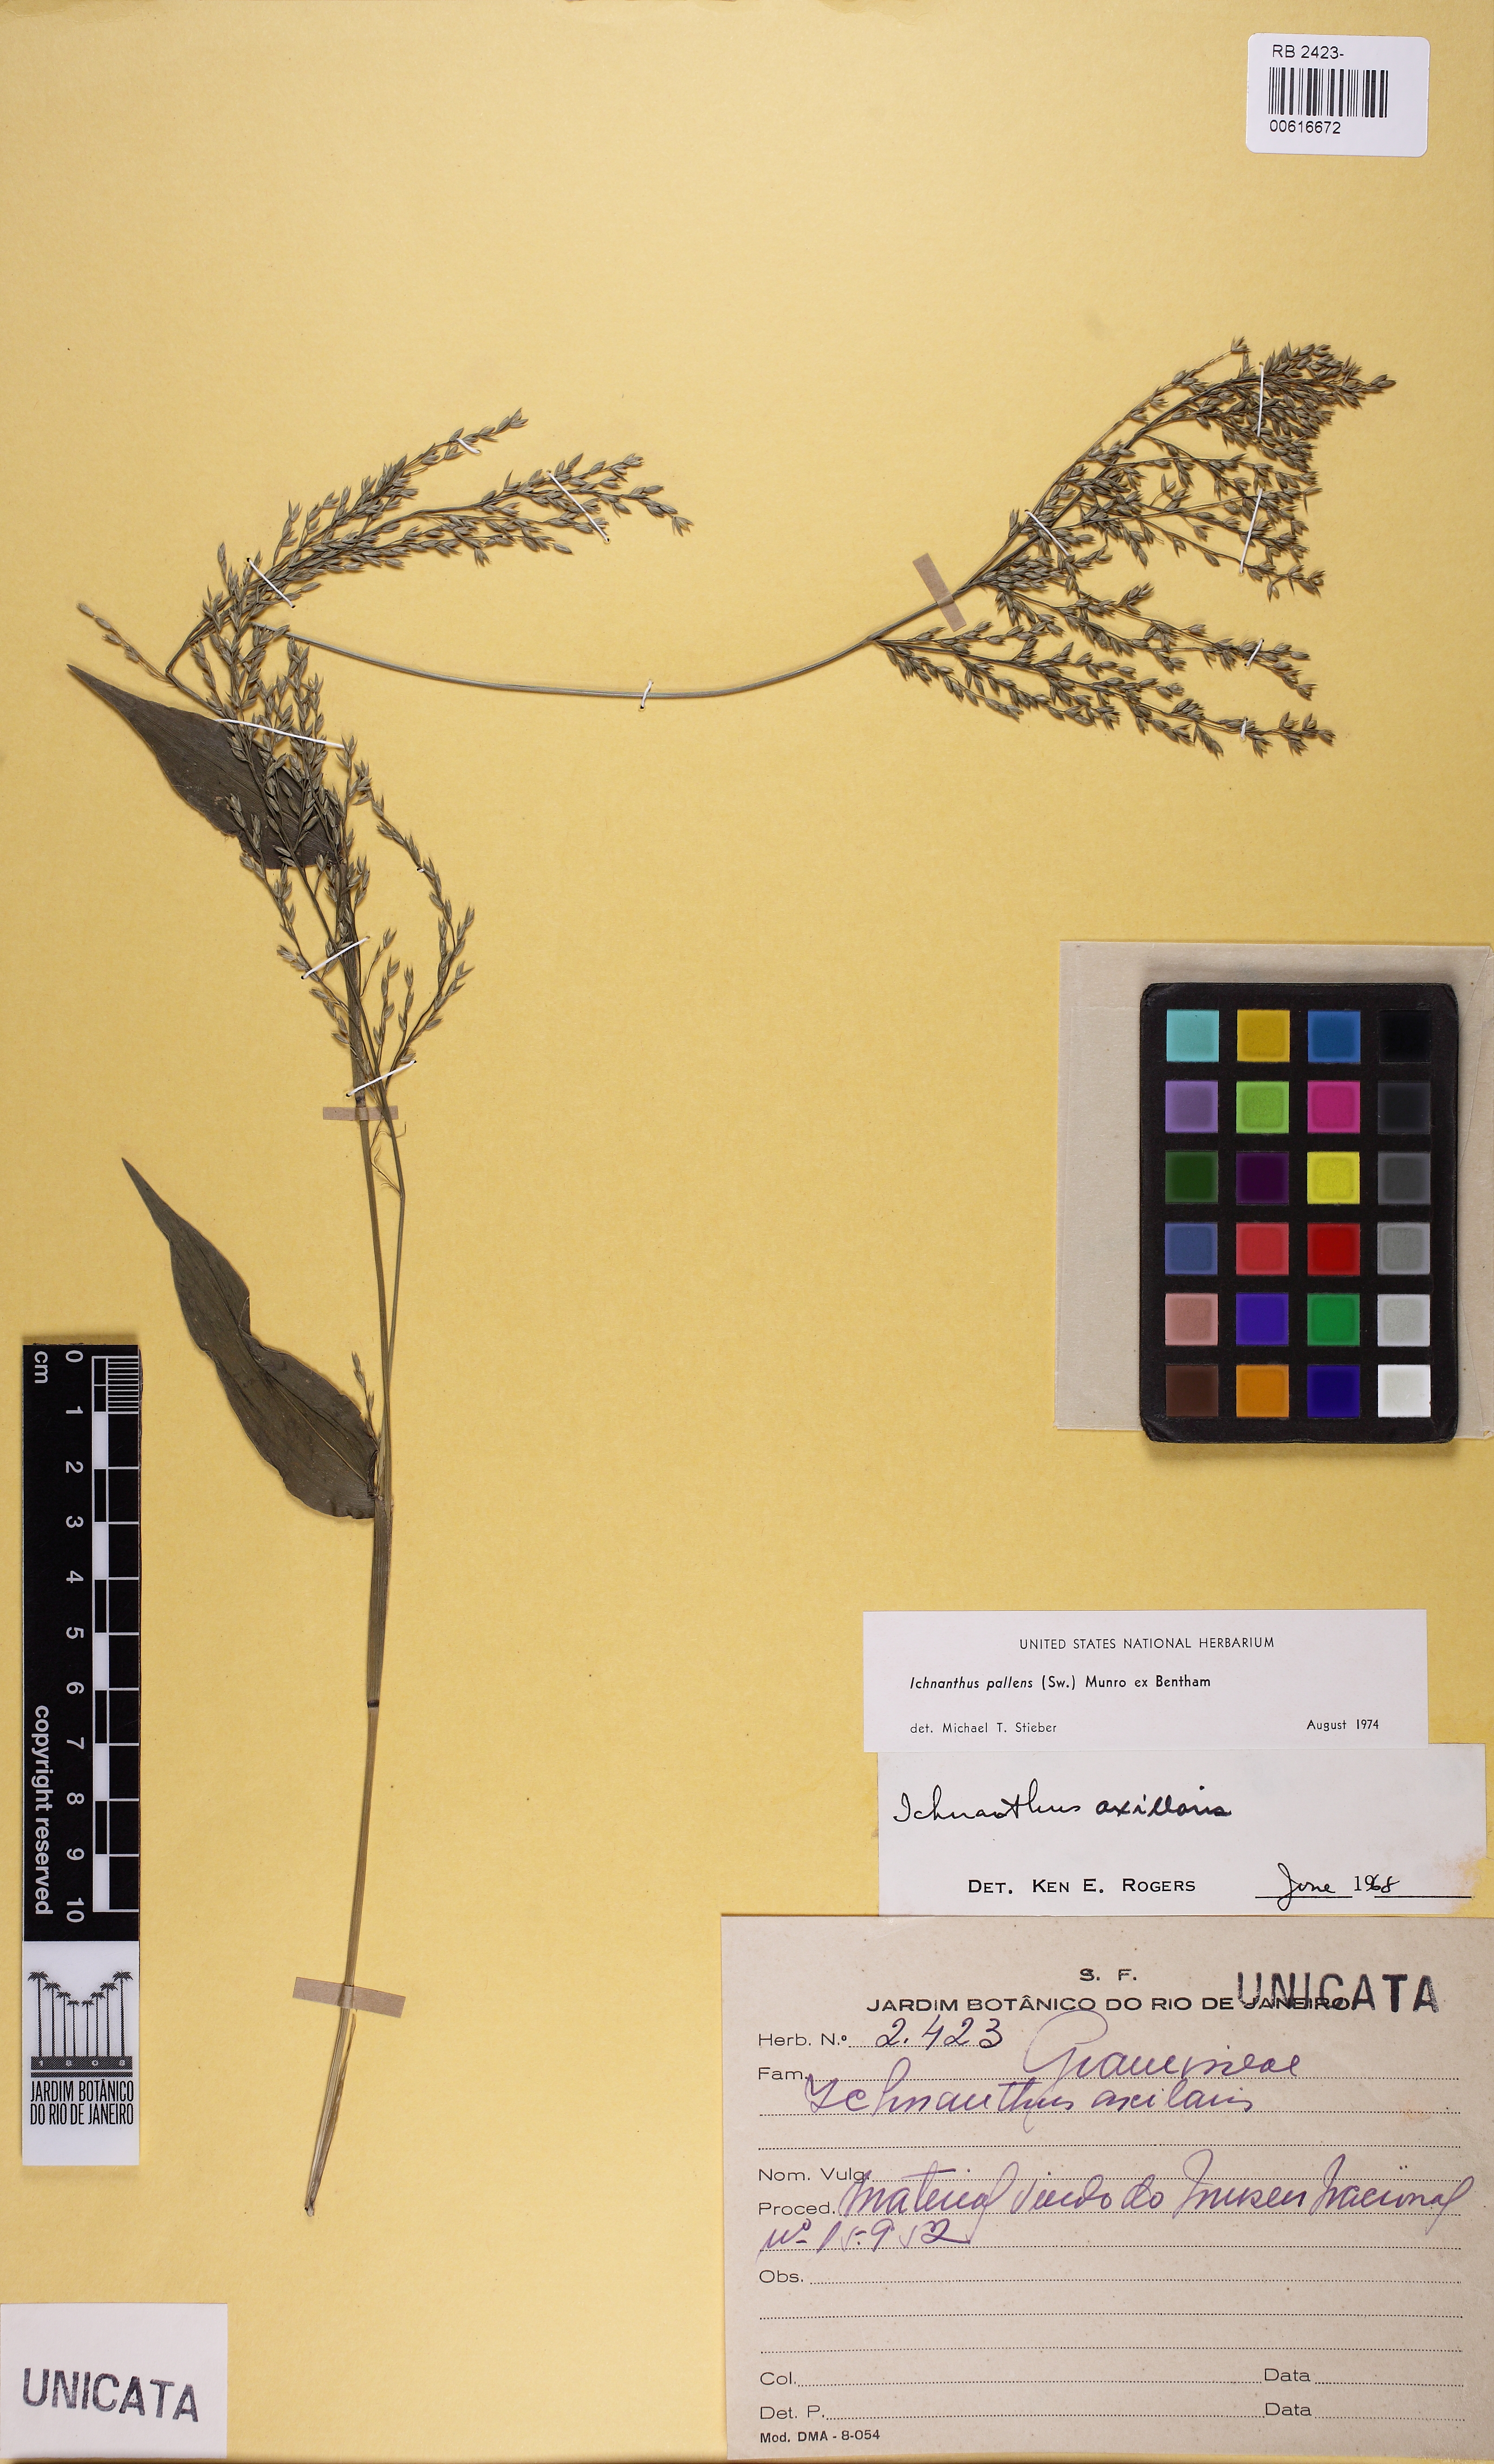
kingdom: Plantae
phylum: Tracheophyta
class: Liliopsida
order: Poales
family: Poaceae
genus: Ichnanthus
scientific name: Ichnanthus pallens
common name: Water grass
